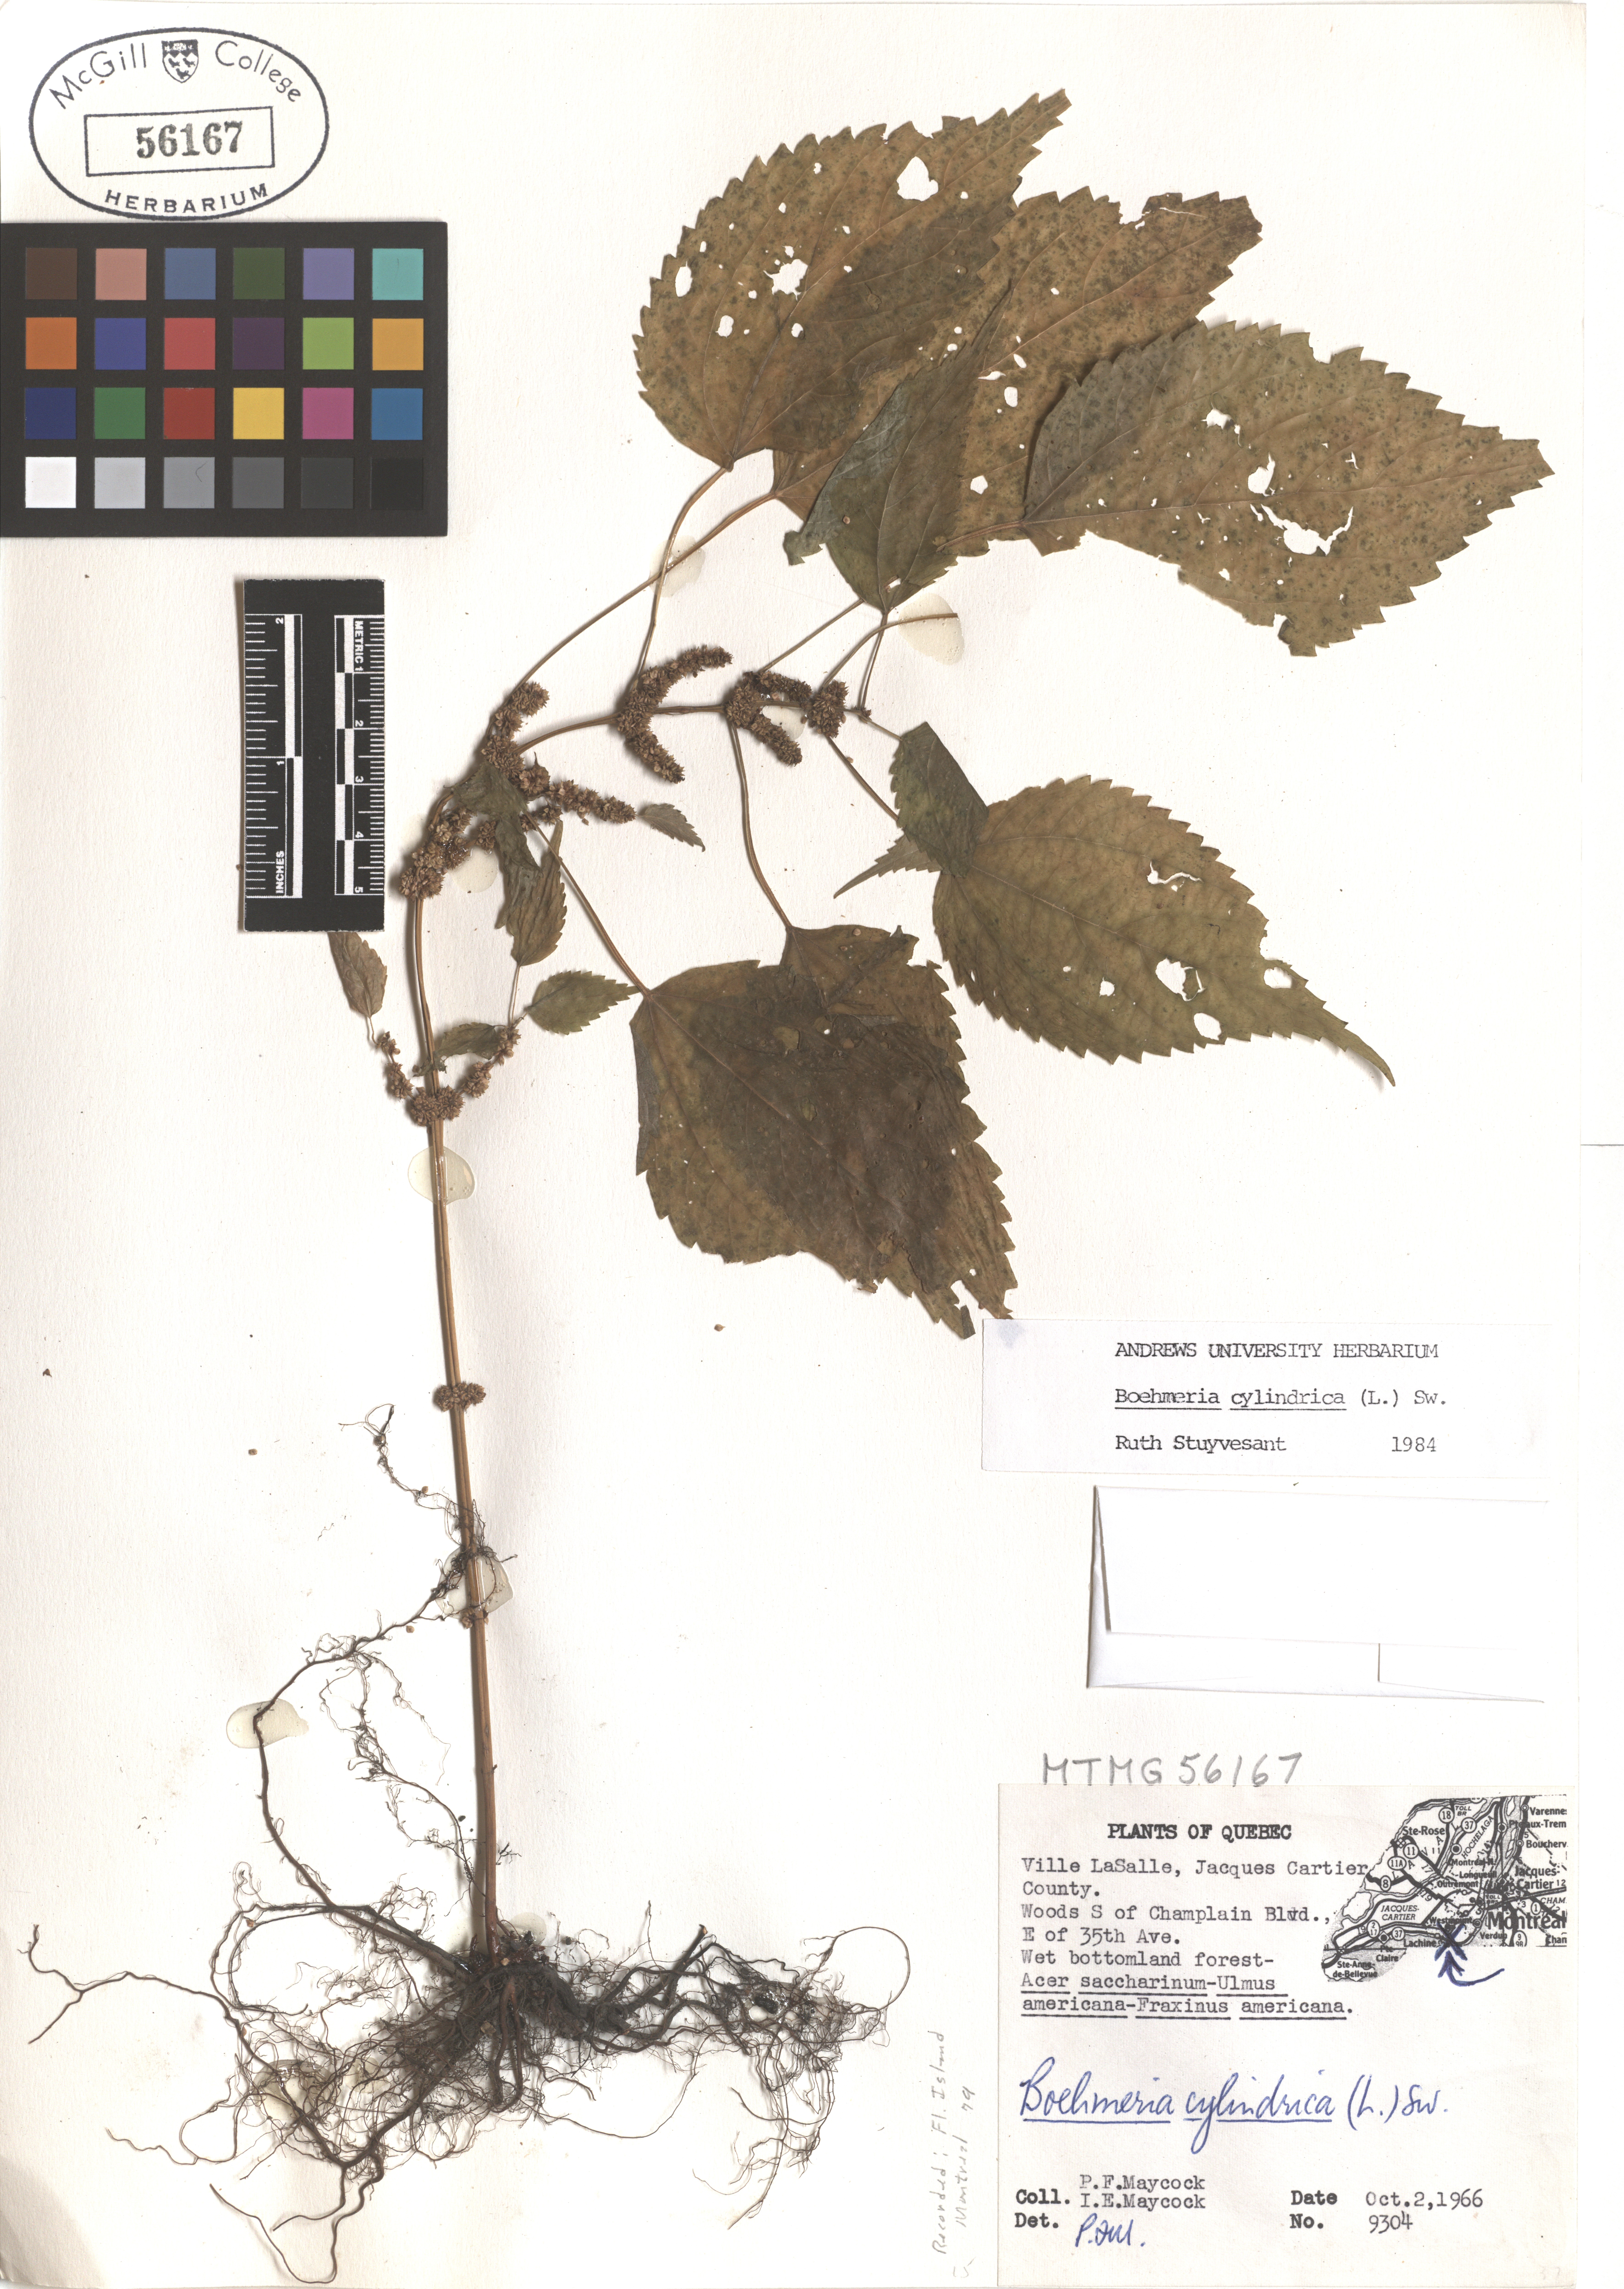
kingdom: Plantae
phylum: Tracheophyta
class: Magnoliopsida
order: Rosales
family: Urticaceae
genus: Boehmeria
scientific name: Boehmeria cylindrica
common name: Bog-hemp
